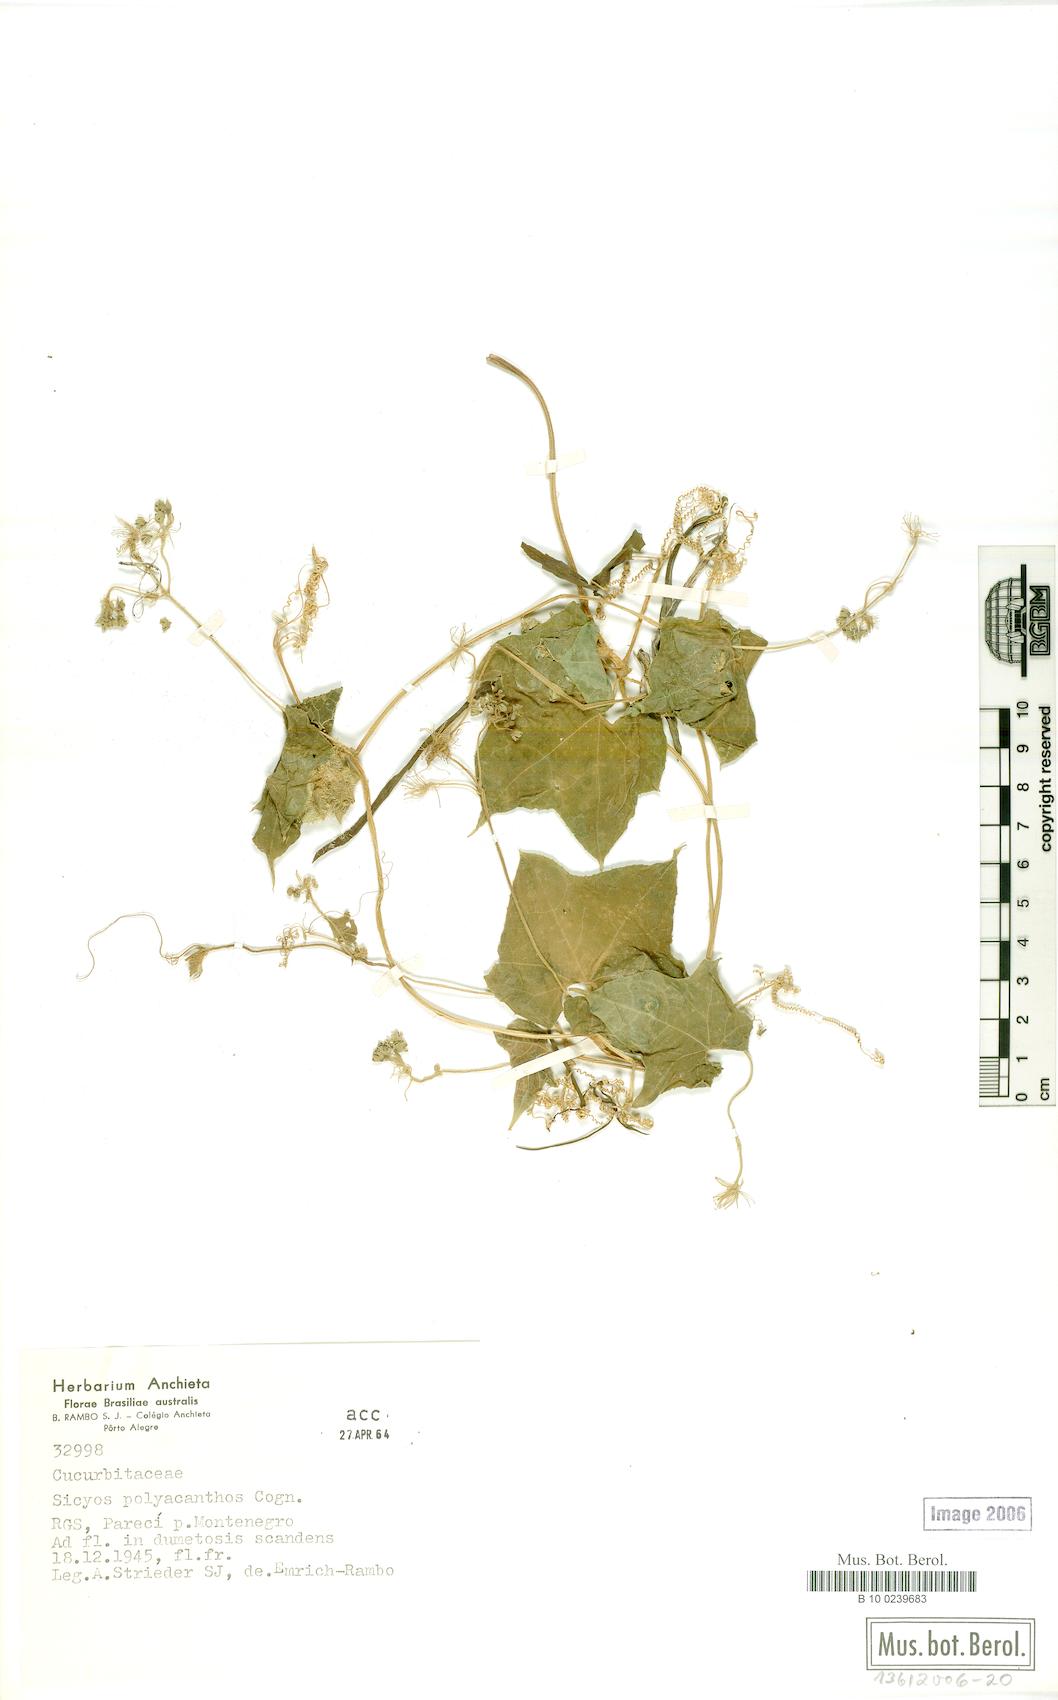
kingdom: Plantae
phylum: Tracheophyta
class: Magnoliopsida
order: Cucurbitales
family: Cucurbitaceae
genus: Sicyos
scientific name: Sicyos polyacanthos
